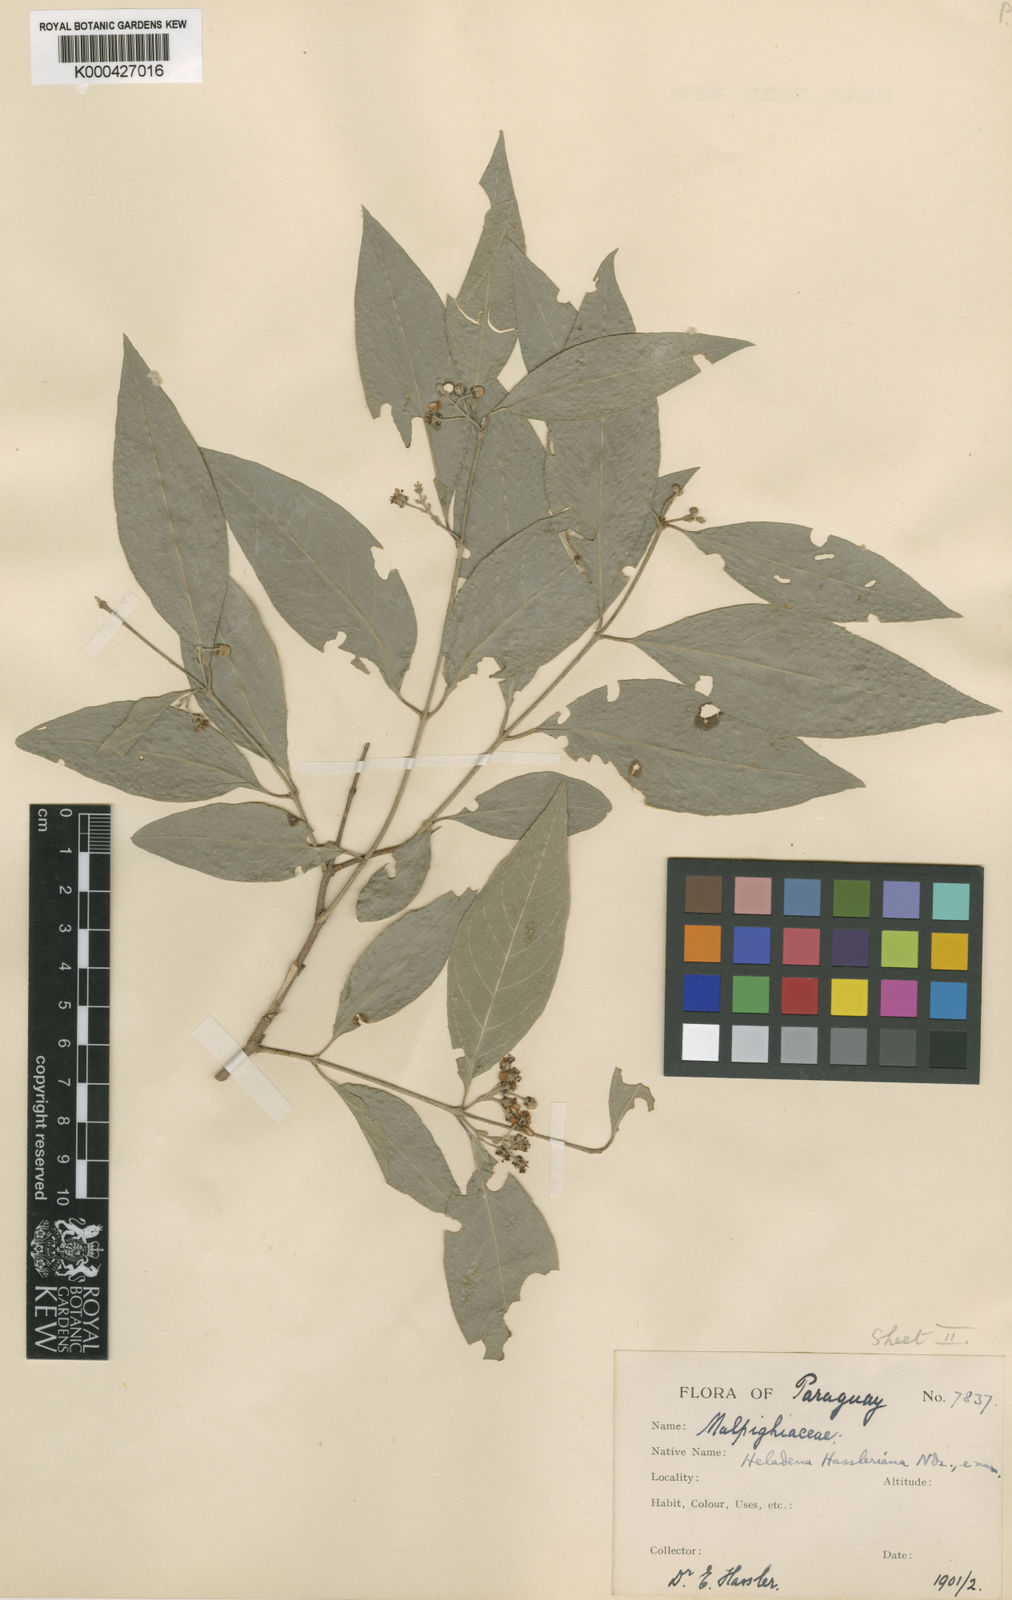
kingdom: Plantae
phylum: Tracheophyta
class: Magnoliopsida
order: Malpighiales
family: Malpighiaceae
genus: Carolus
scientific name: Carolus chlorocarpus
